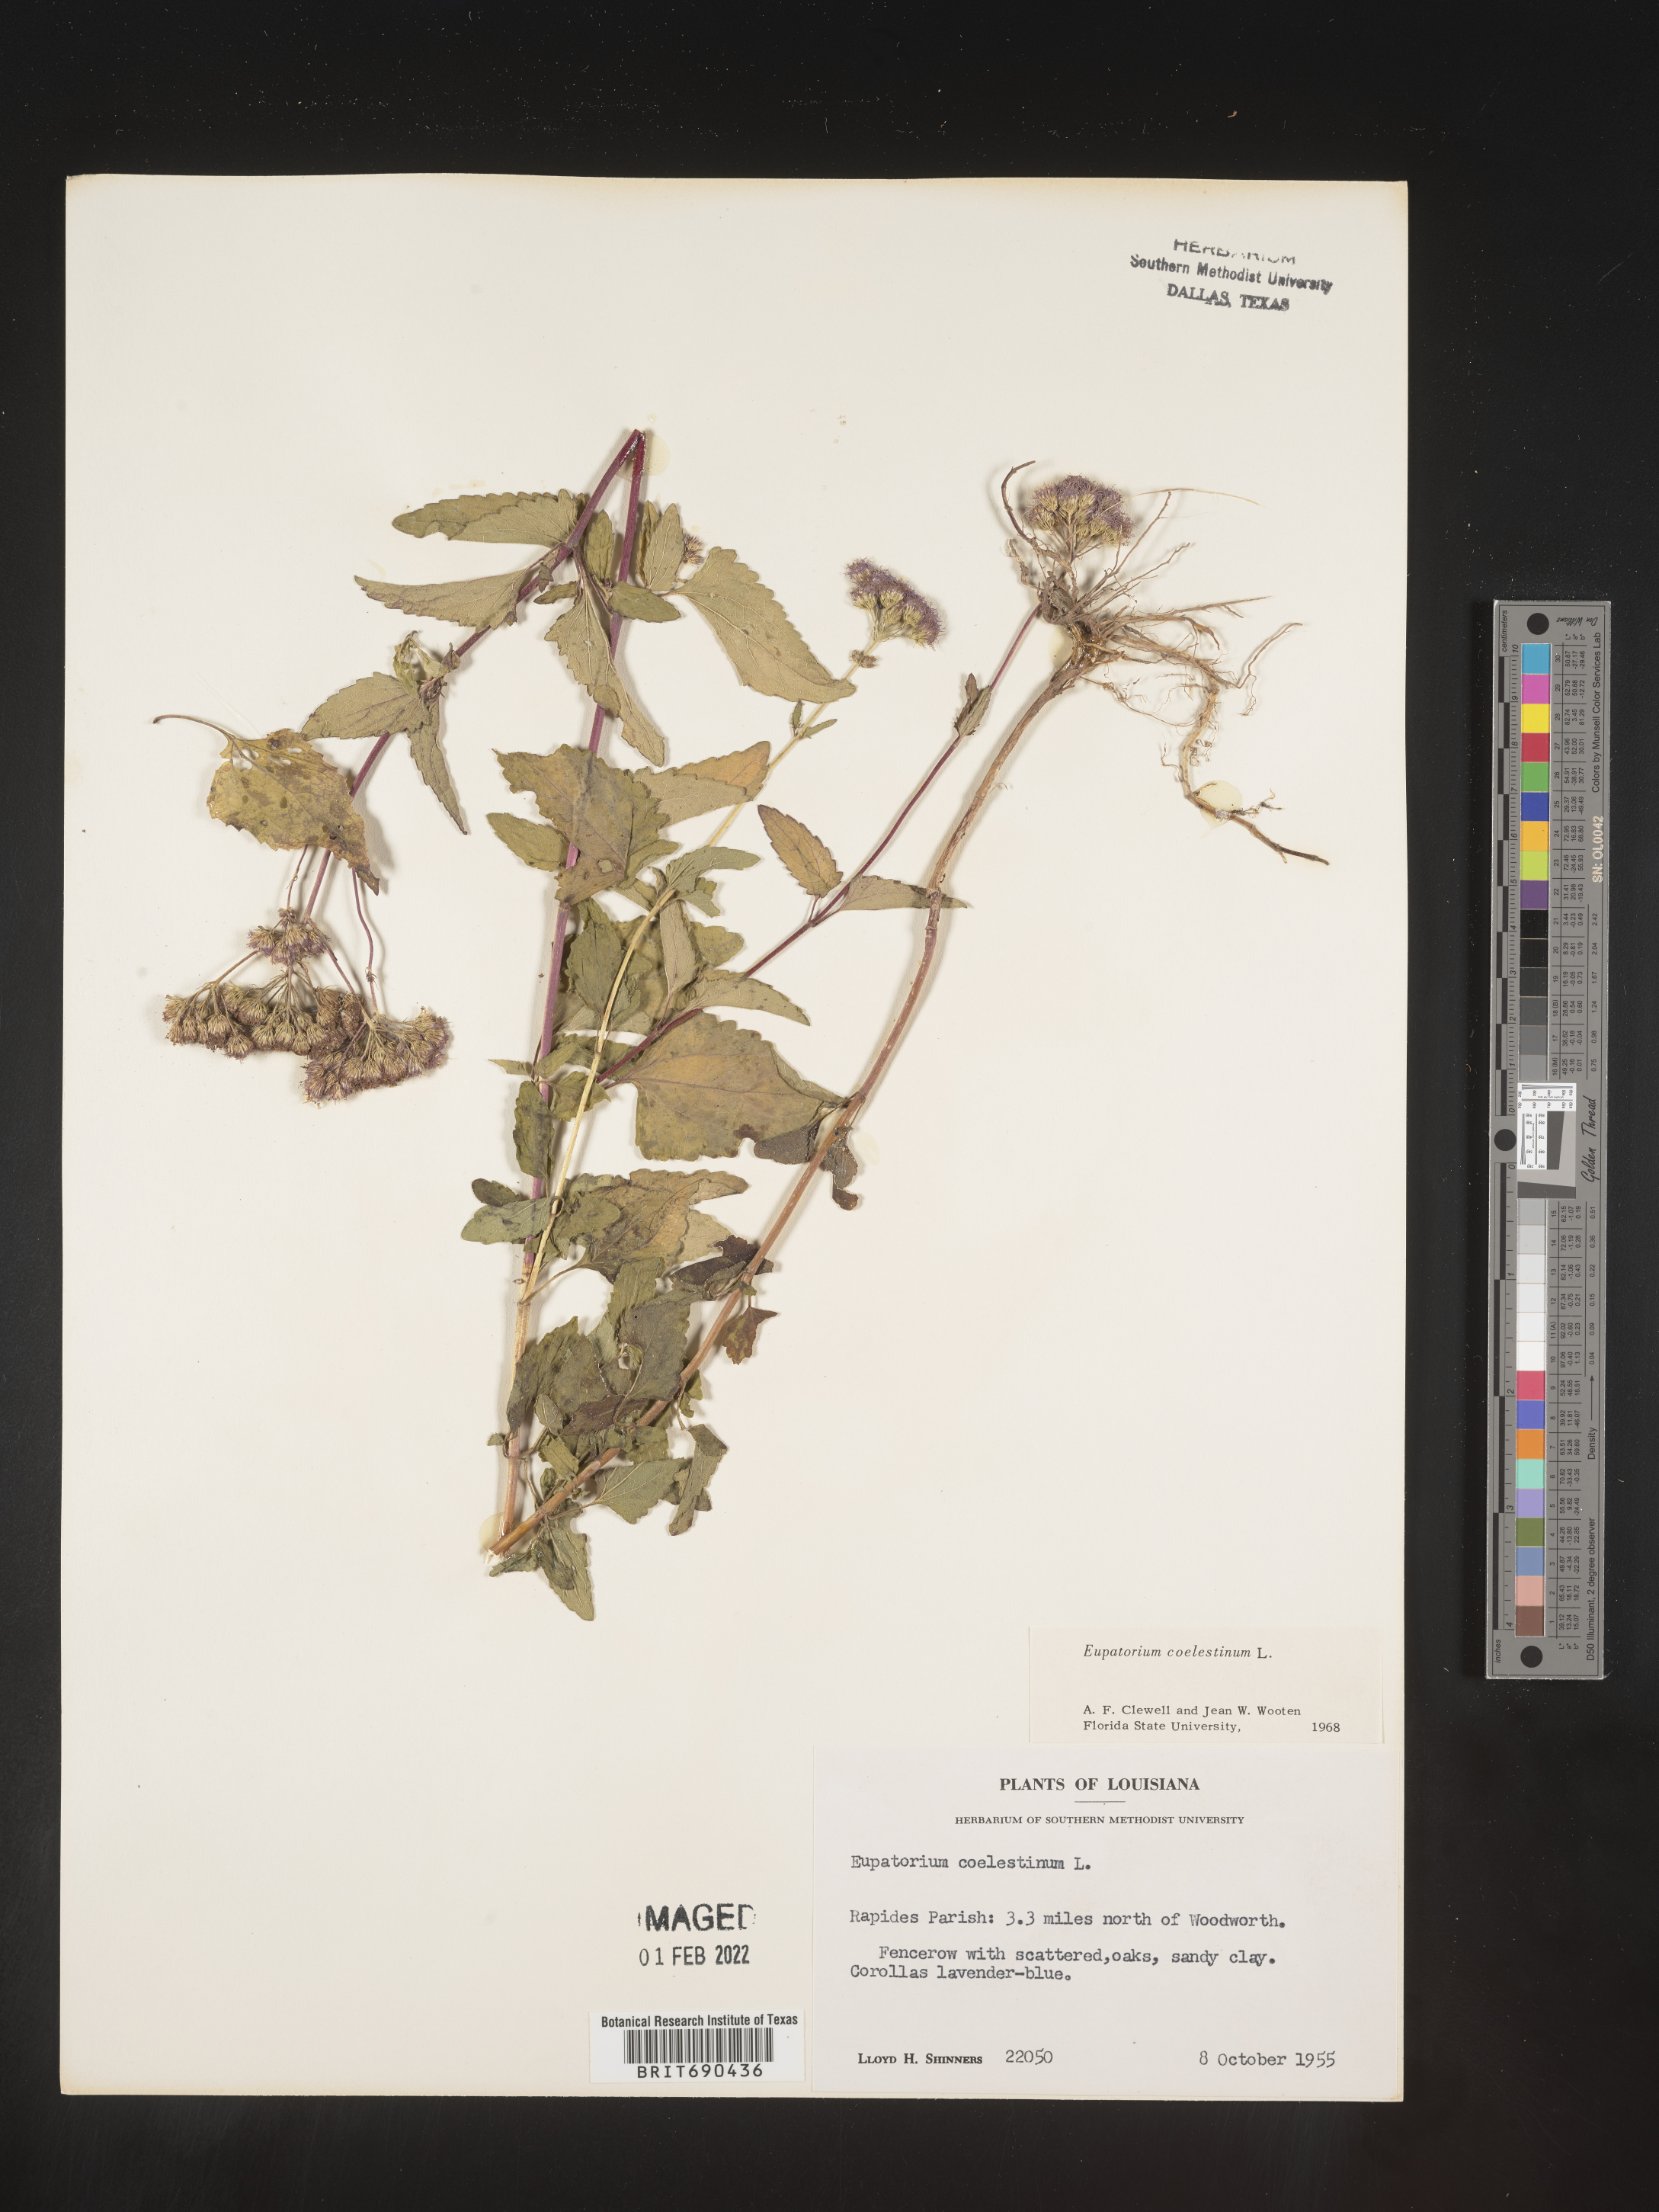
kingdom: Plantae
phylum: Tracheophyta
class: Magnoliopsida
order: Asterales
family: Asteraceae
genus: Conoclinium
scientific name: Conoclinium coelestinum
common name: Blue mistflower
